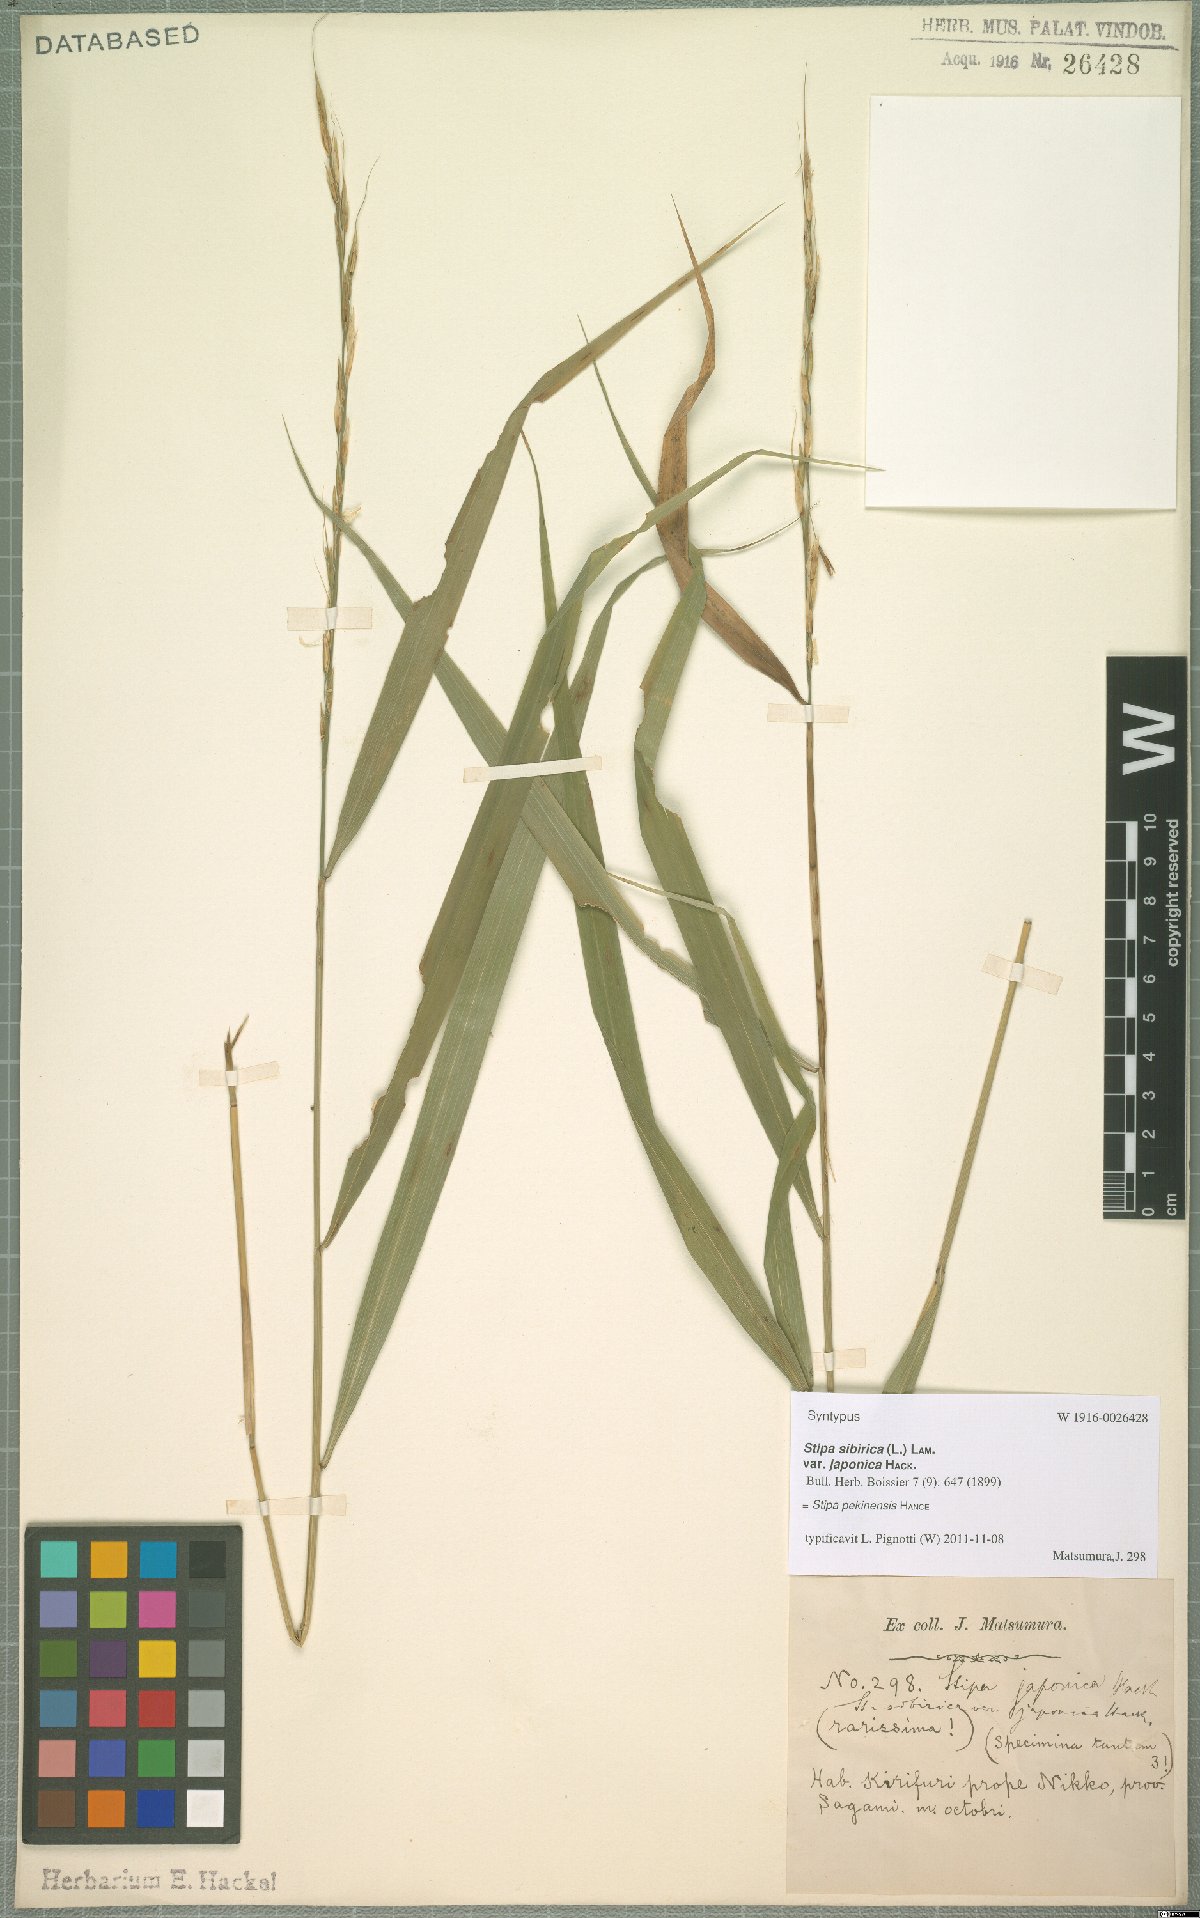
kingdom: Plantae
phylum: Tracheophyta
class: Liliopsida
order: Poales
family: Poaceae
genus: Achnatherum
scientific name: Achnatherum pekinense
